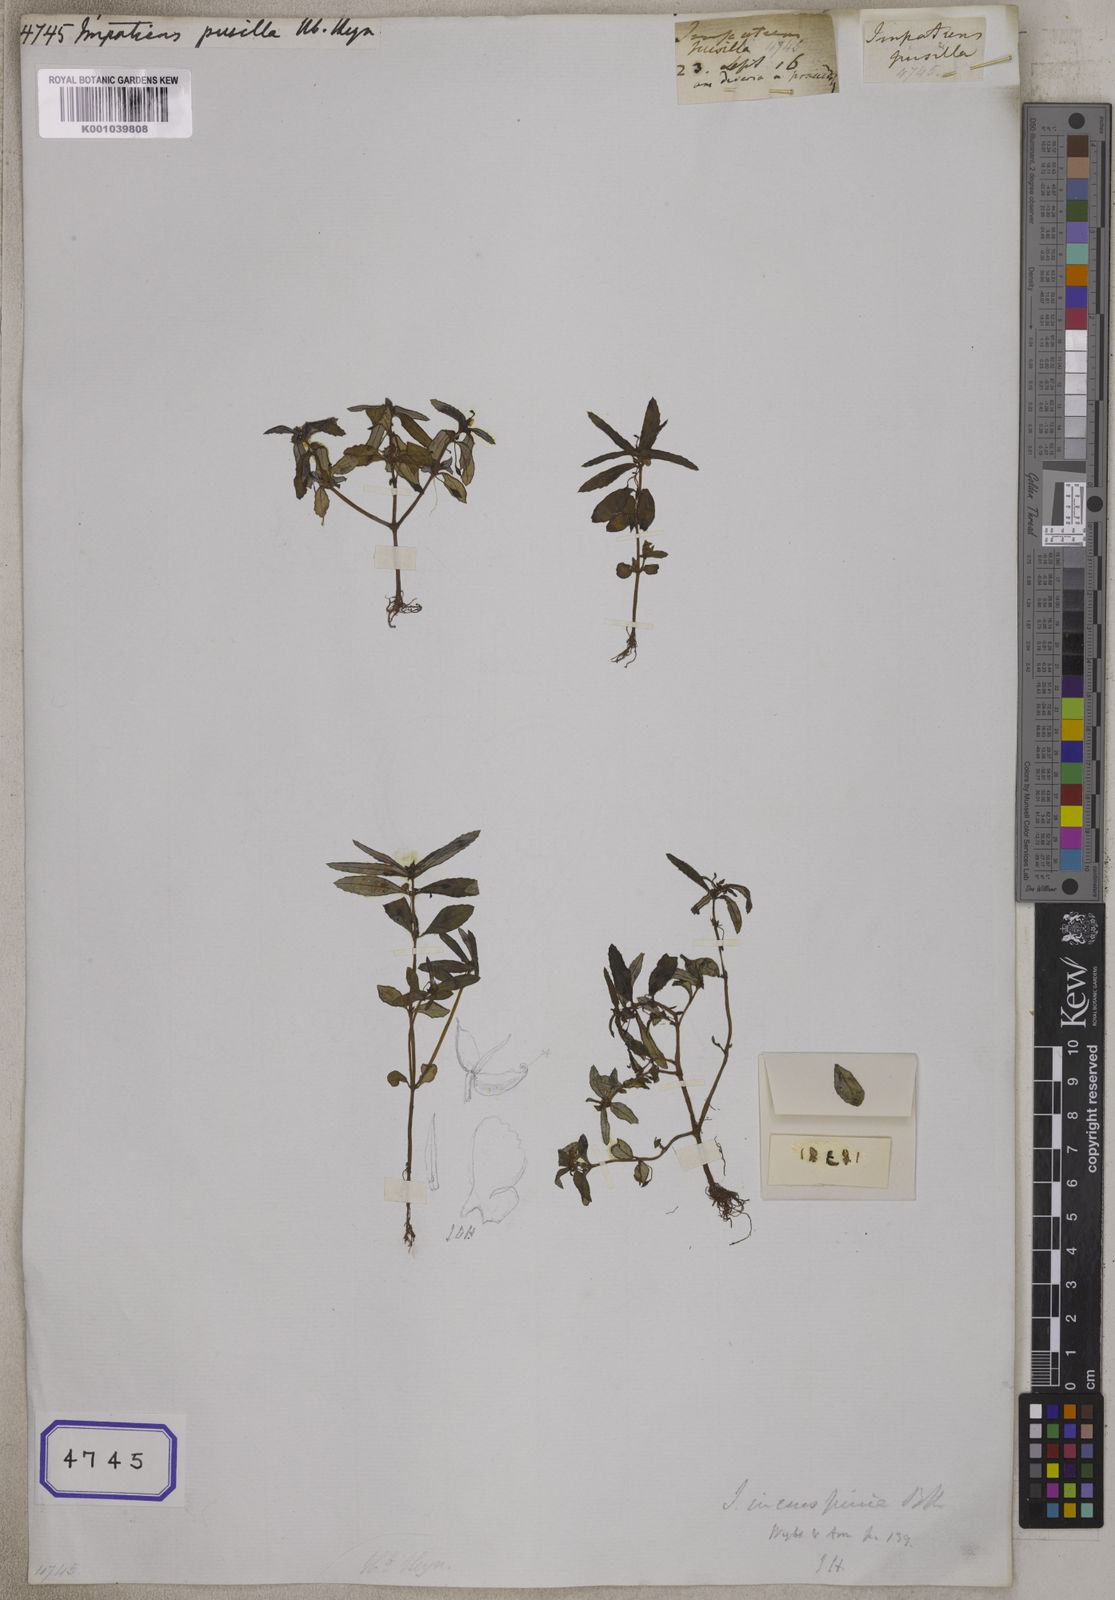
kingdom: Plantae
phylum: Tracheophyta
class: Magnoliopsida
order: Ericales
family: Balsaminaceae
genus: Impatiens
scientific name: Impatiens
